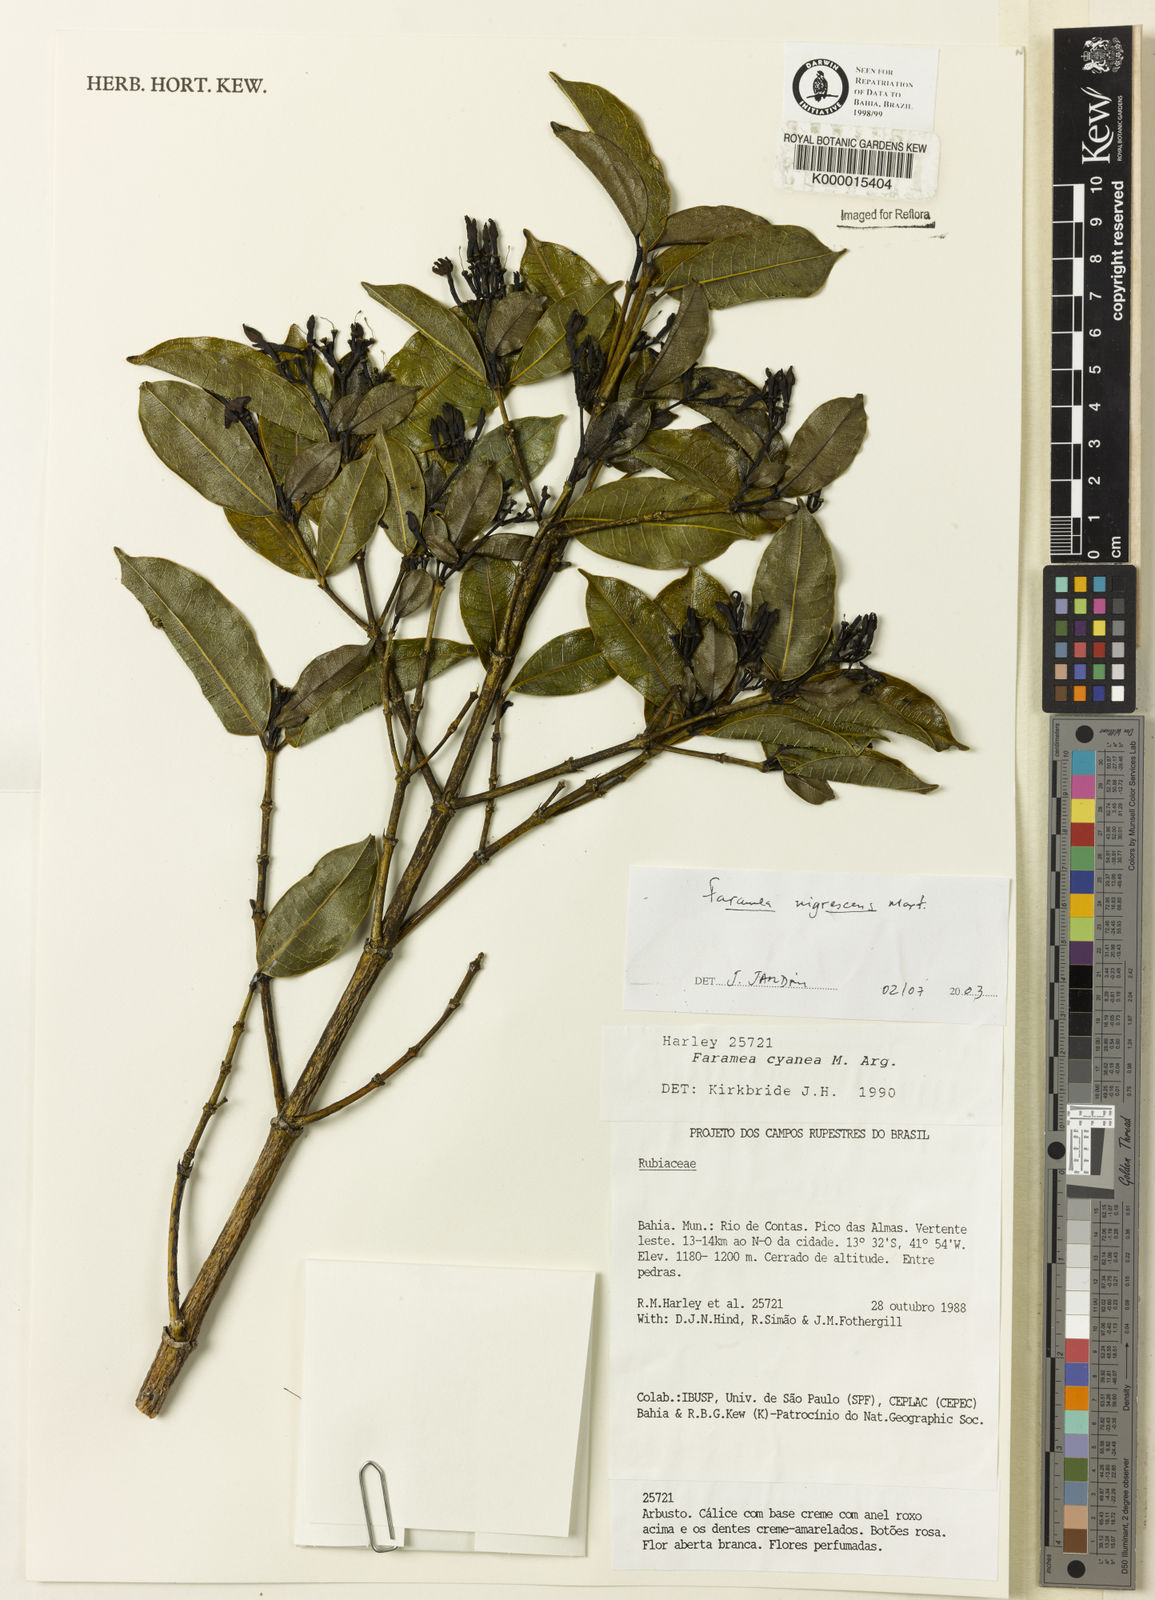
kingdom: Plantae
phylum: Tracheophyta
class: Magnoliopsida
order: Gentianales
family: Rubiaceae
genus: Faramea
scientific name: Faramea nigrescens
